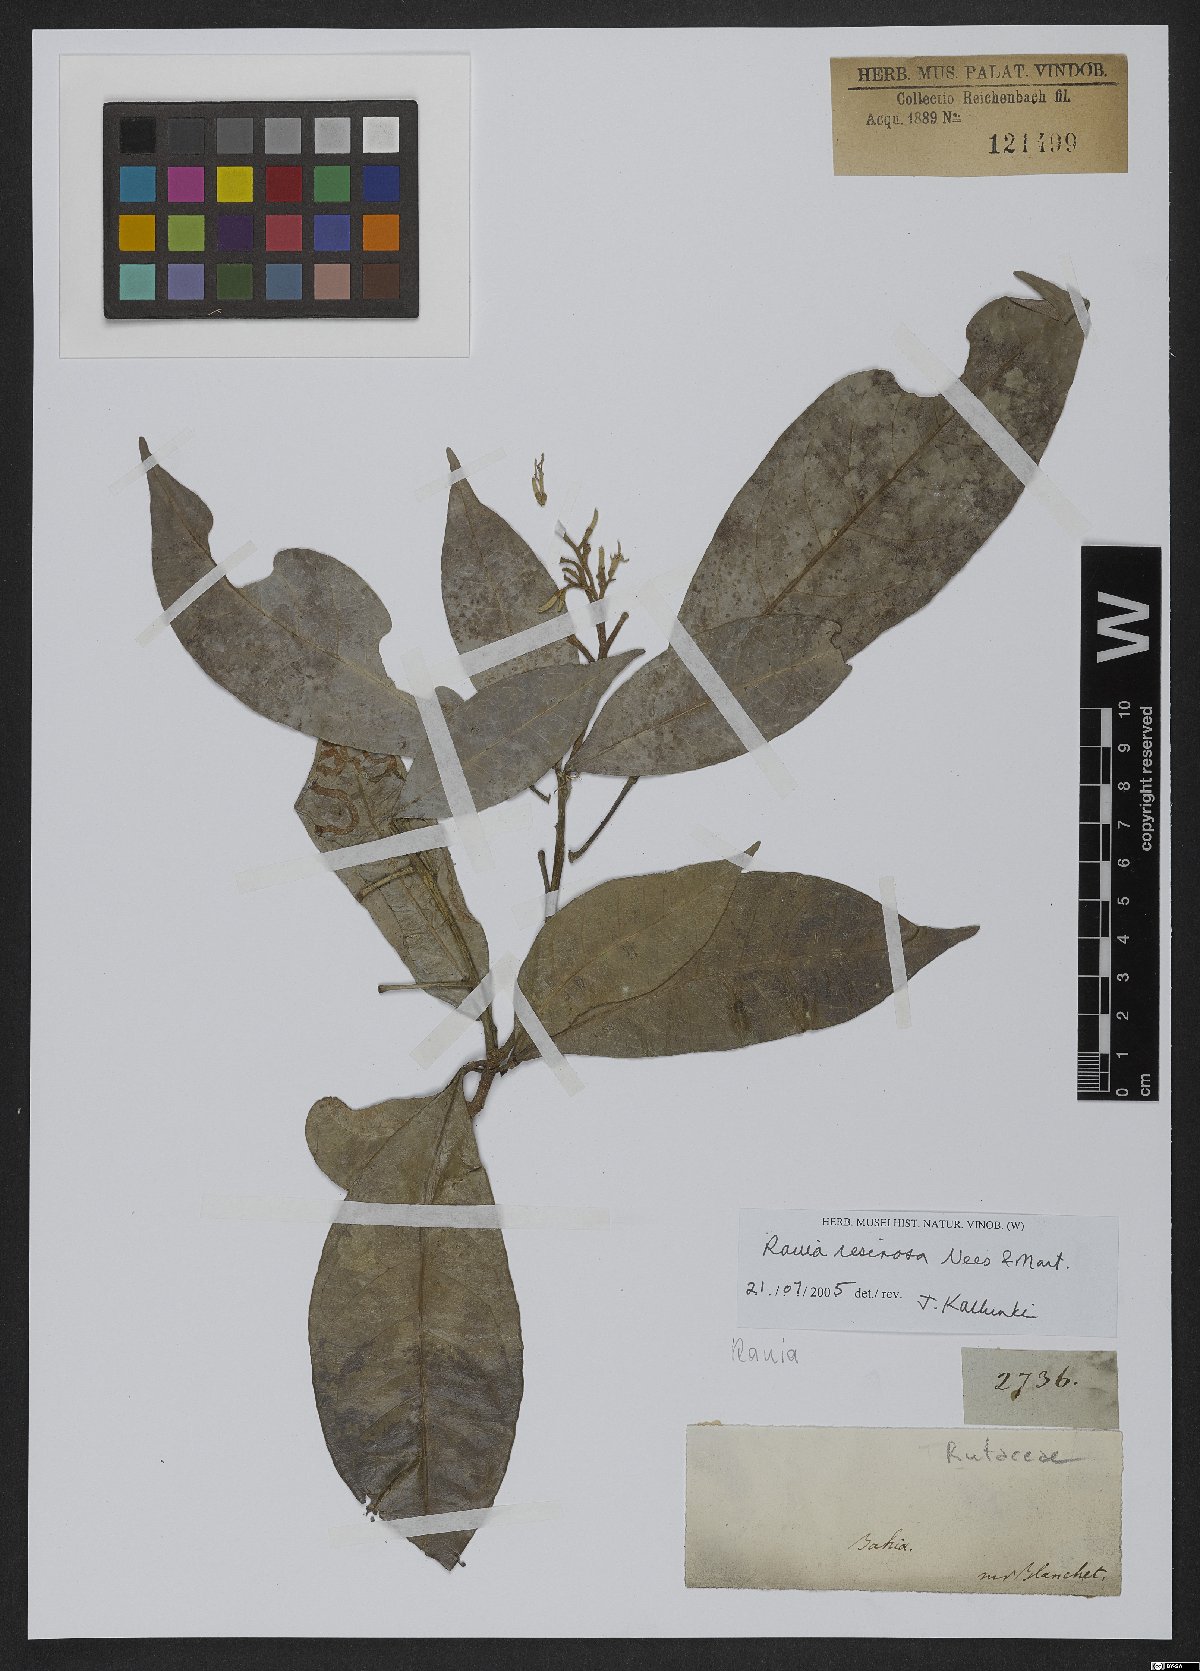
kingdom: Plantae
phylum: Tracheophyta
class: Magnoliopsida
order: Sapindales
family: Rutaceae
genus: Rauia
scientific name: Rauia resinosa
